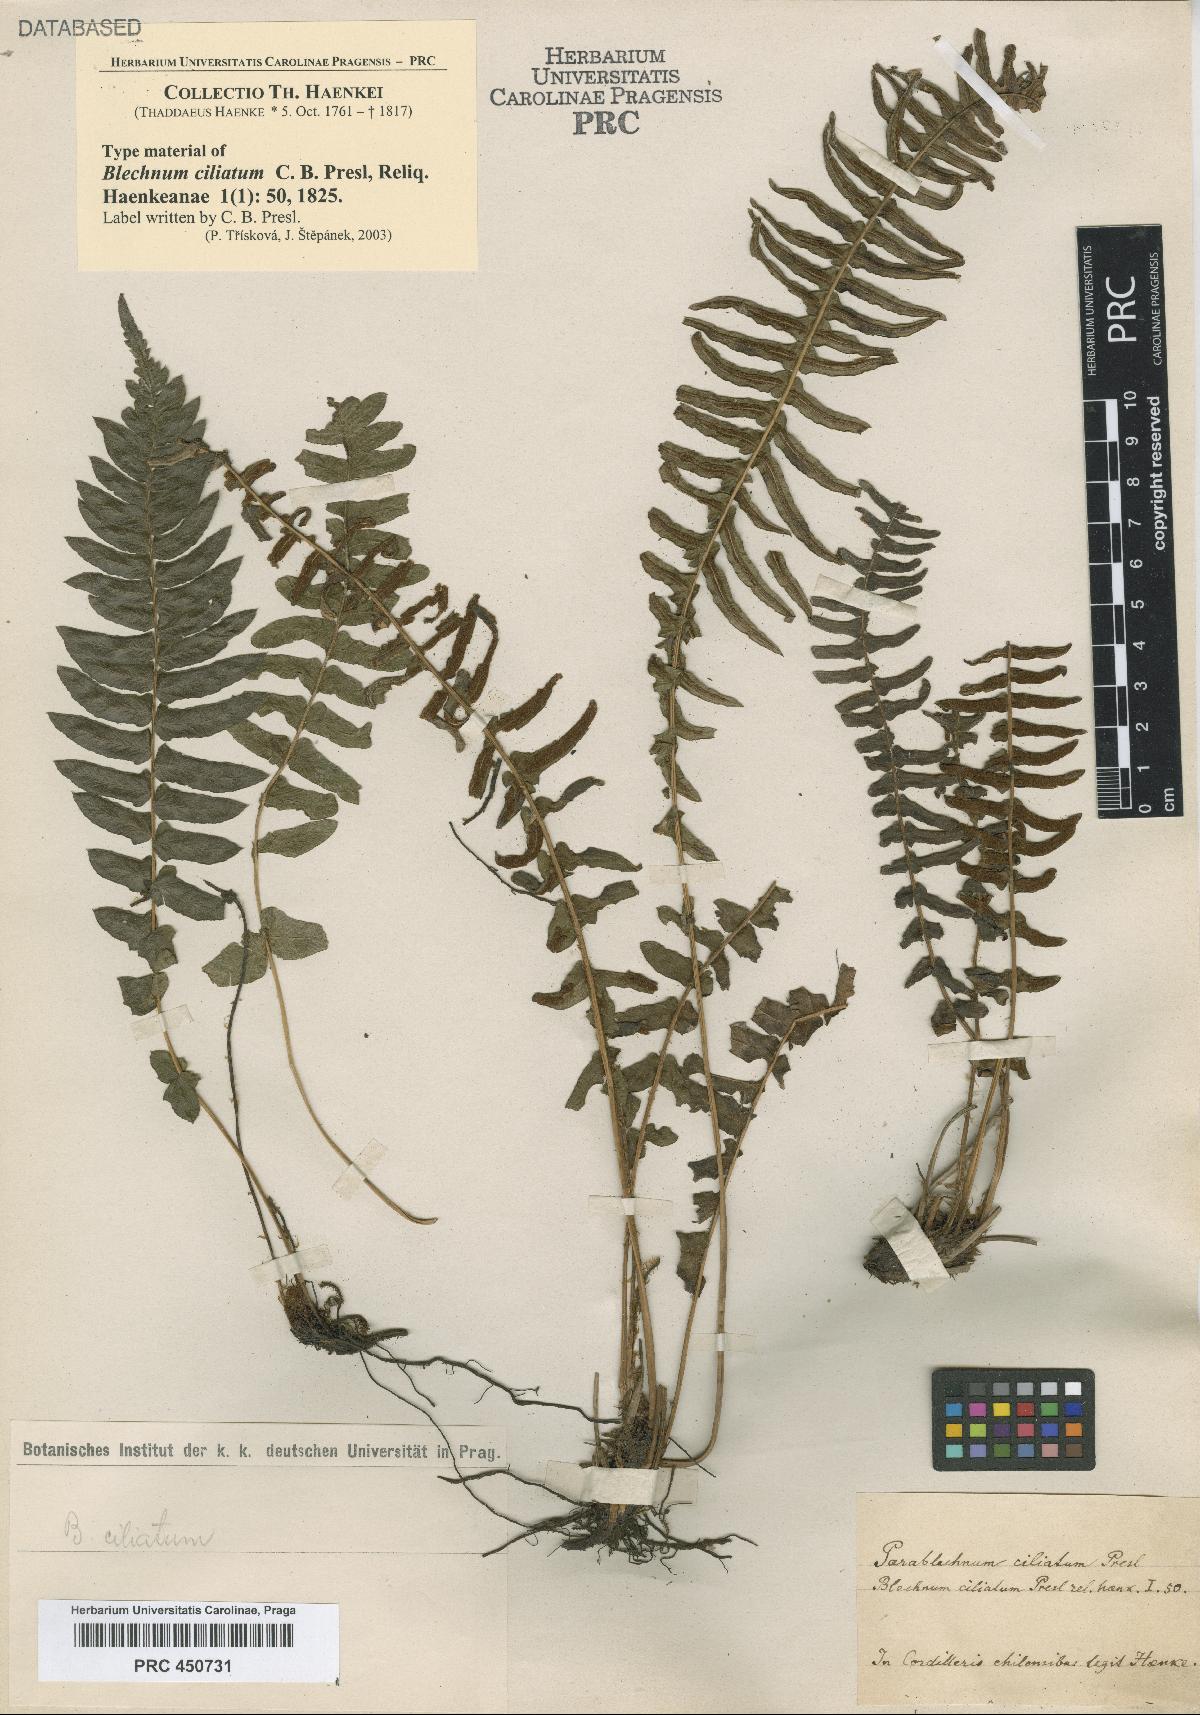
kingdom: Plantae
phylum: Tracheophyta
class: Polypodiopsida
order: Polypodiales
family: Blechnaceae
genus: Blechnum
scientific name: Blechnum hastatum
